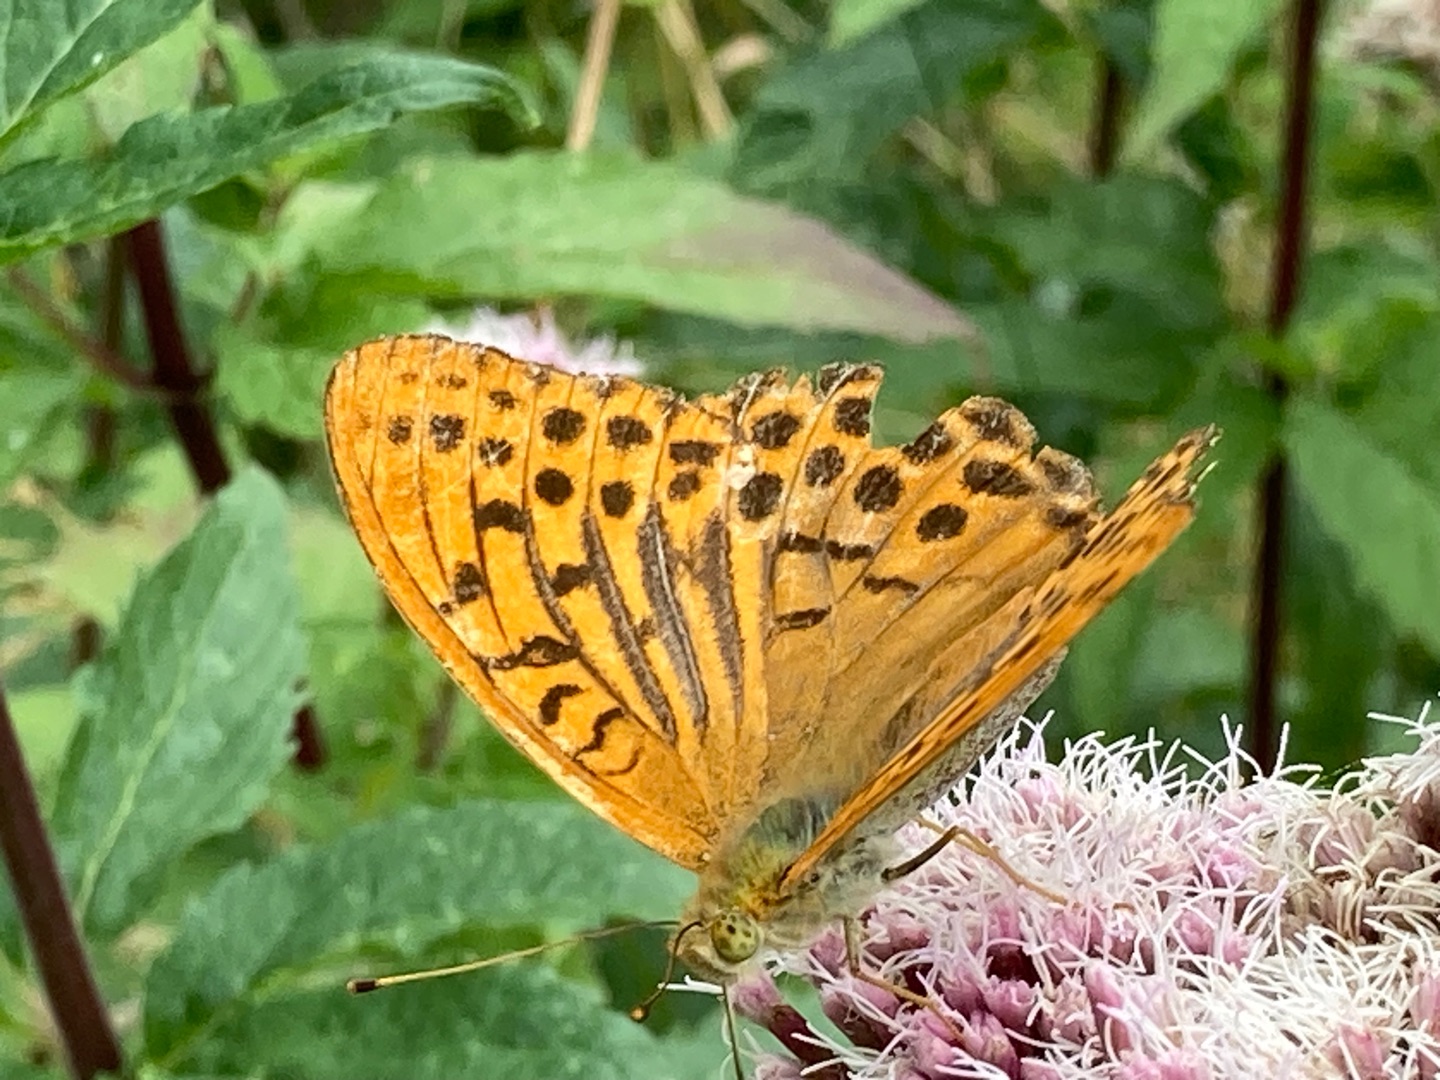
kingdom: Animalia
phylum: Arthropoda
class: Insecta
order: Lepidoptera
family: Nymphalidae
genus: Argynnis
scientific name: Argynnis paphia
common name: Kejserkåbe
